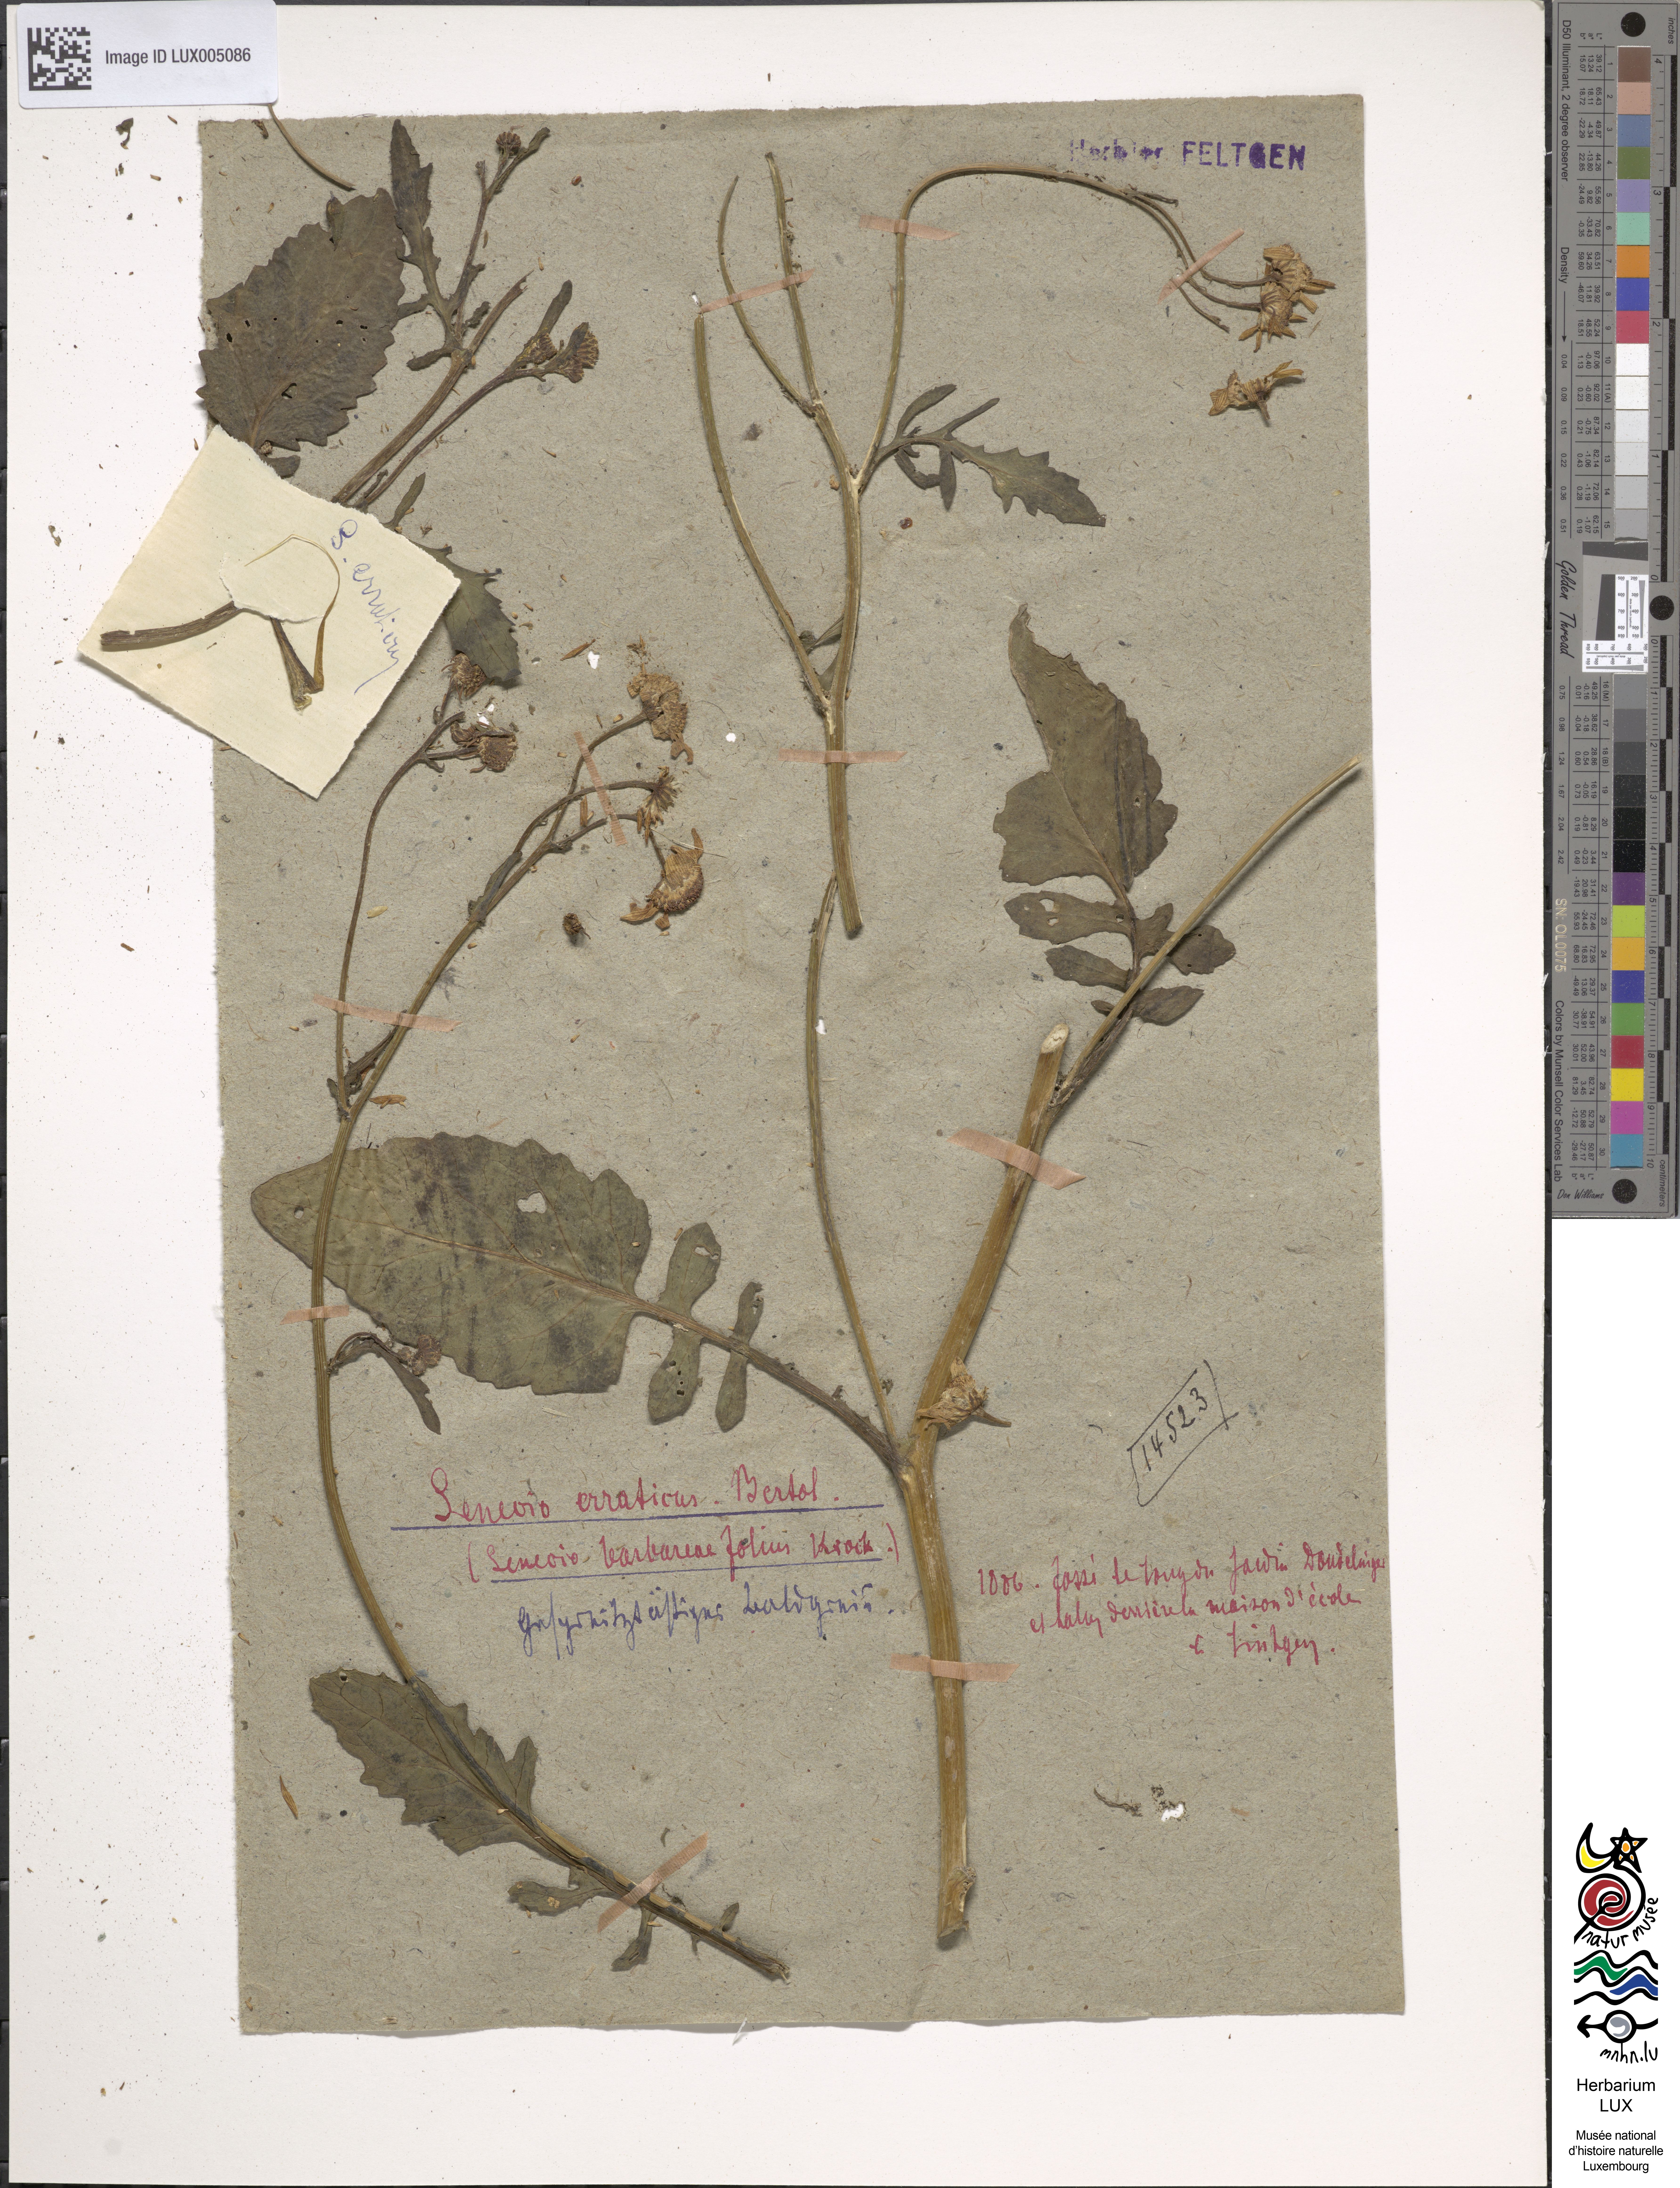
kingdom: Plantae
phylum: Tracheophyta
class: Magnoliopsida
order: Asterales
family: Asteraceae
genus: Jacobaea
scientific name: Jacobaea aquatica
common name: Water ragwort
